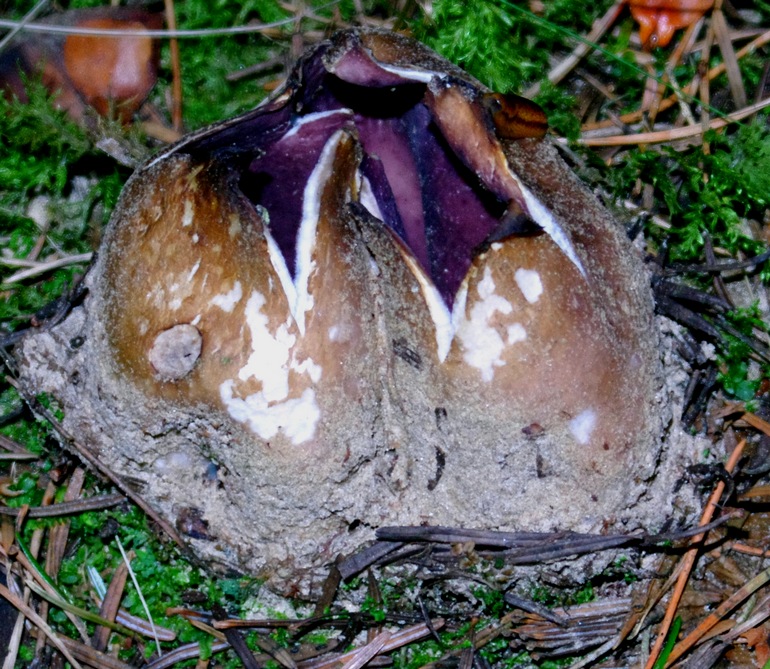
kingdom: Fungi
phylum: Ascomycota
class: Pezizomycetes
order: Pezizales
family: Pezizaceae
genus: Sarcosphaera
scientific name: Sarcosphaera coronaria
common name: stjernebæger
